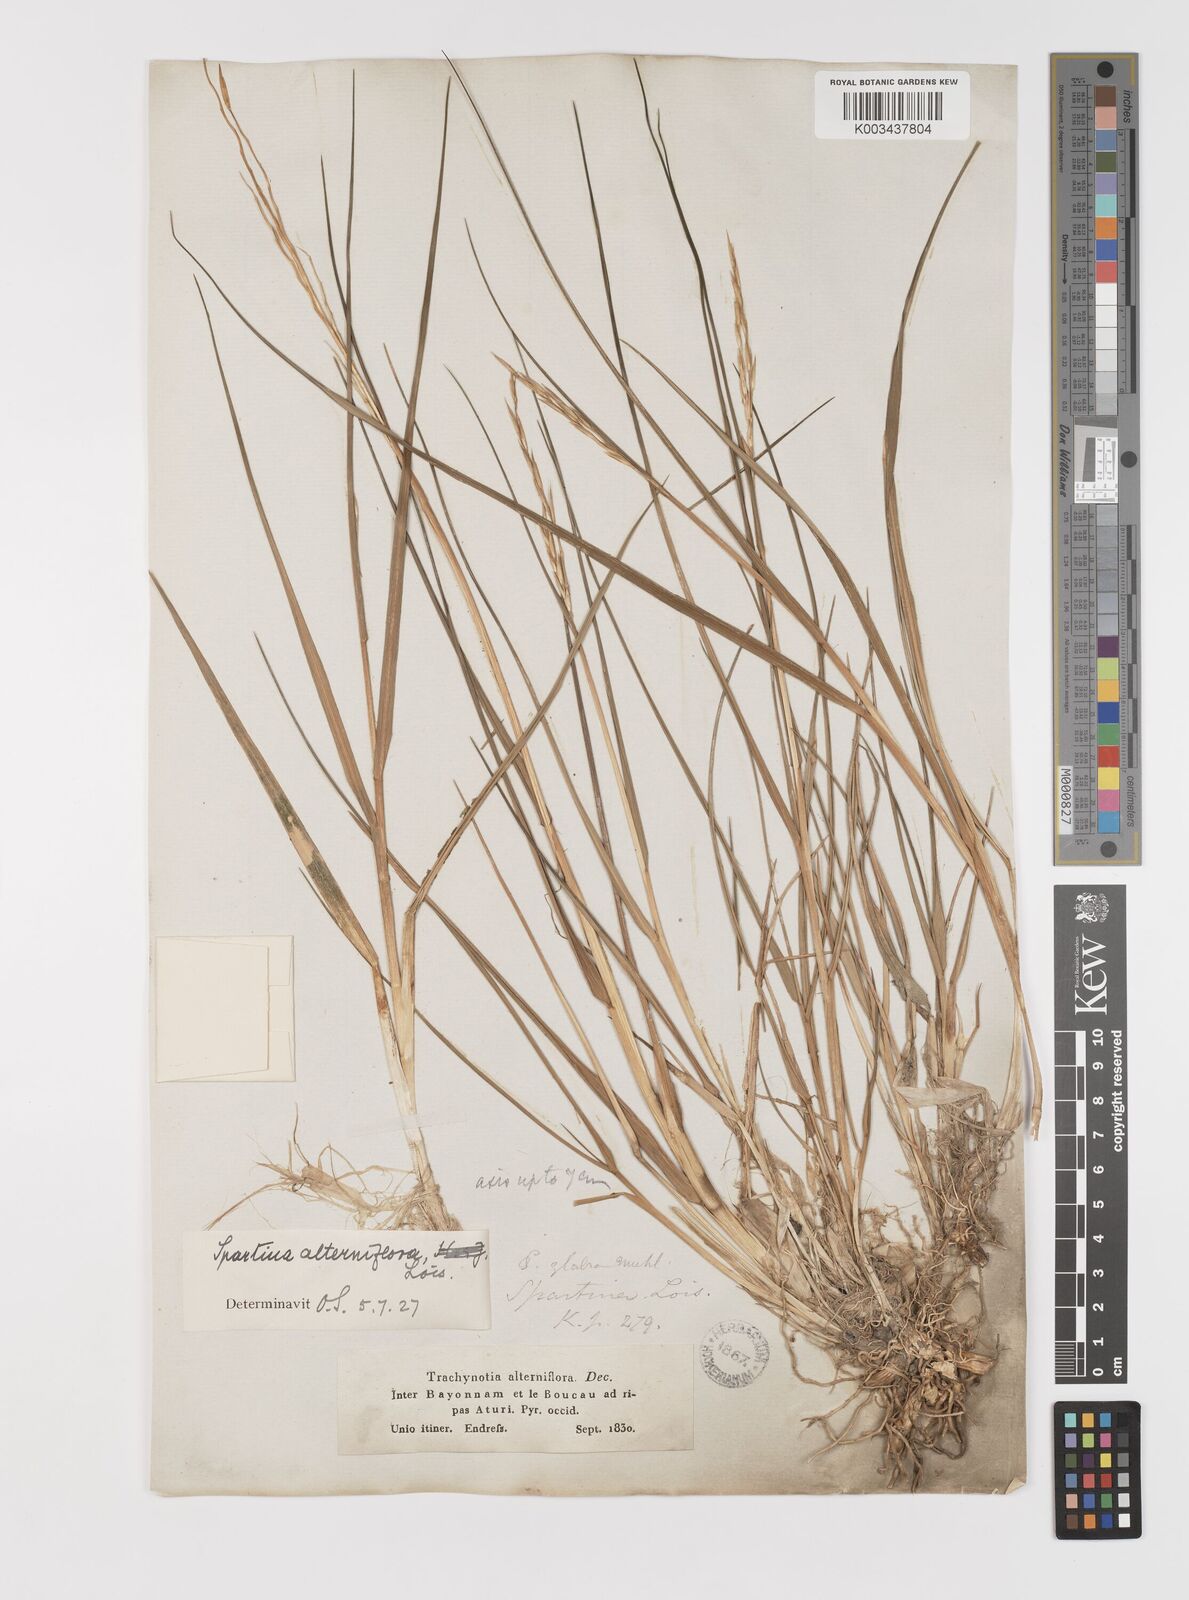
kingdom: Plantae
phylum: Tracheophyta
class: Liliopsida
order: Poales
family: Poaceae
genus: Sporobolus
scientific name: Sporobolus alterniflorus
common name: Atlantic cordgrass
